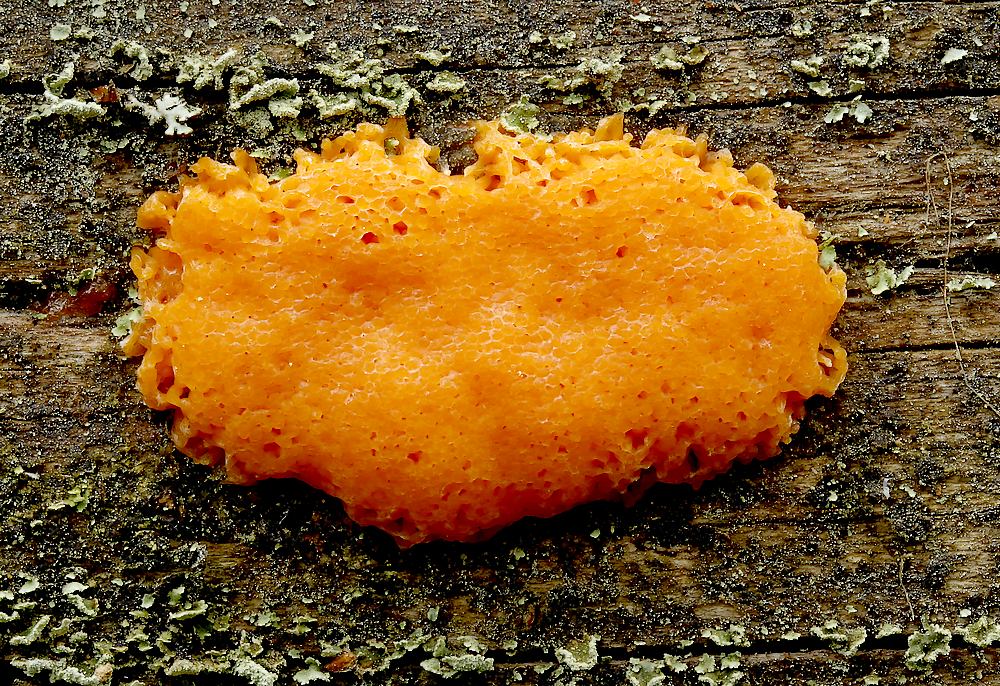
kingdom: Protozoa
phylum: Mycetozoa
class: Myxomycetes
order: Cribrariales
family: Tubiferaceae
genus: Tubifera
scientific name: Tubifera montana
